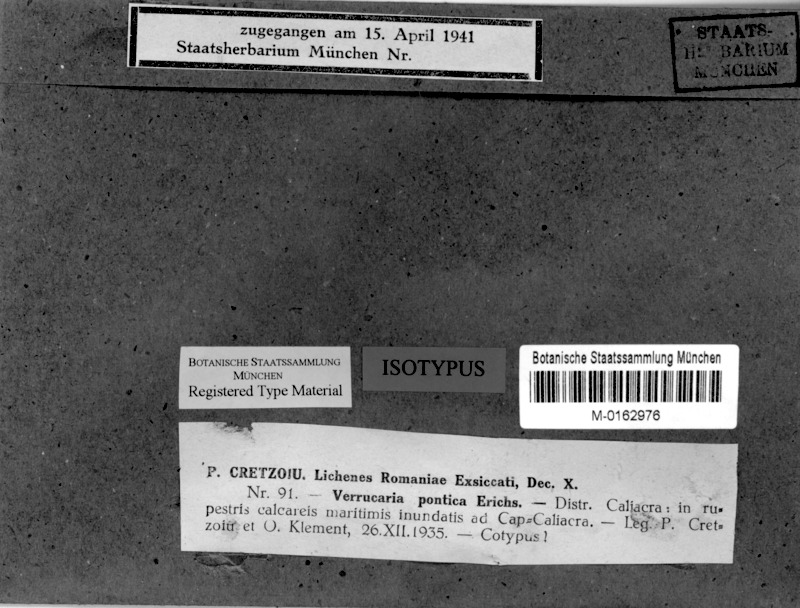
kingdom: Fungi
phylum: Ascomycota
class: Eurotiomycetes
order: Verrucariales
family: Verrucariaceae
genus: Verrucaria
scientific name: Verrucaria pontica
